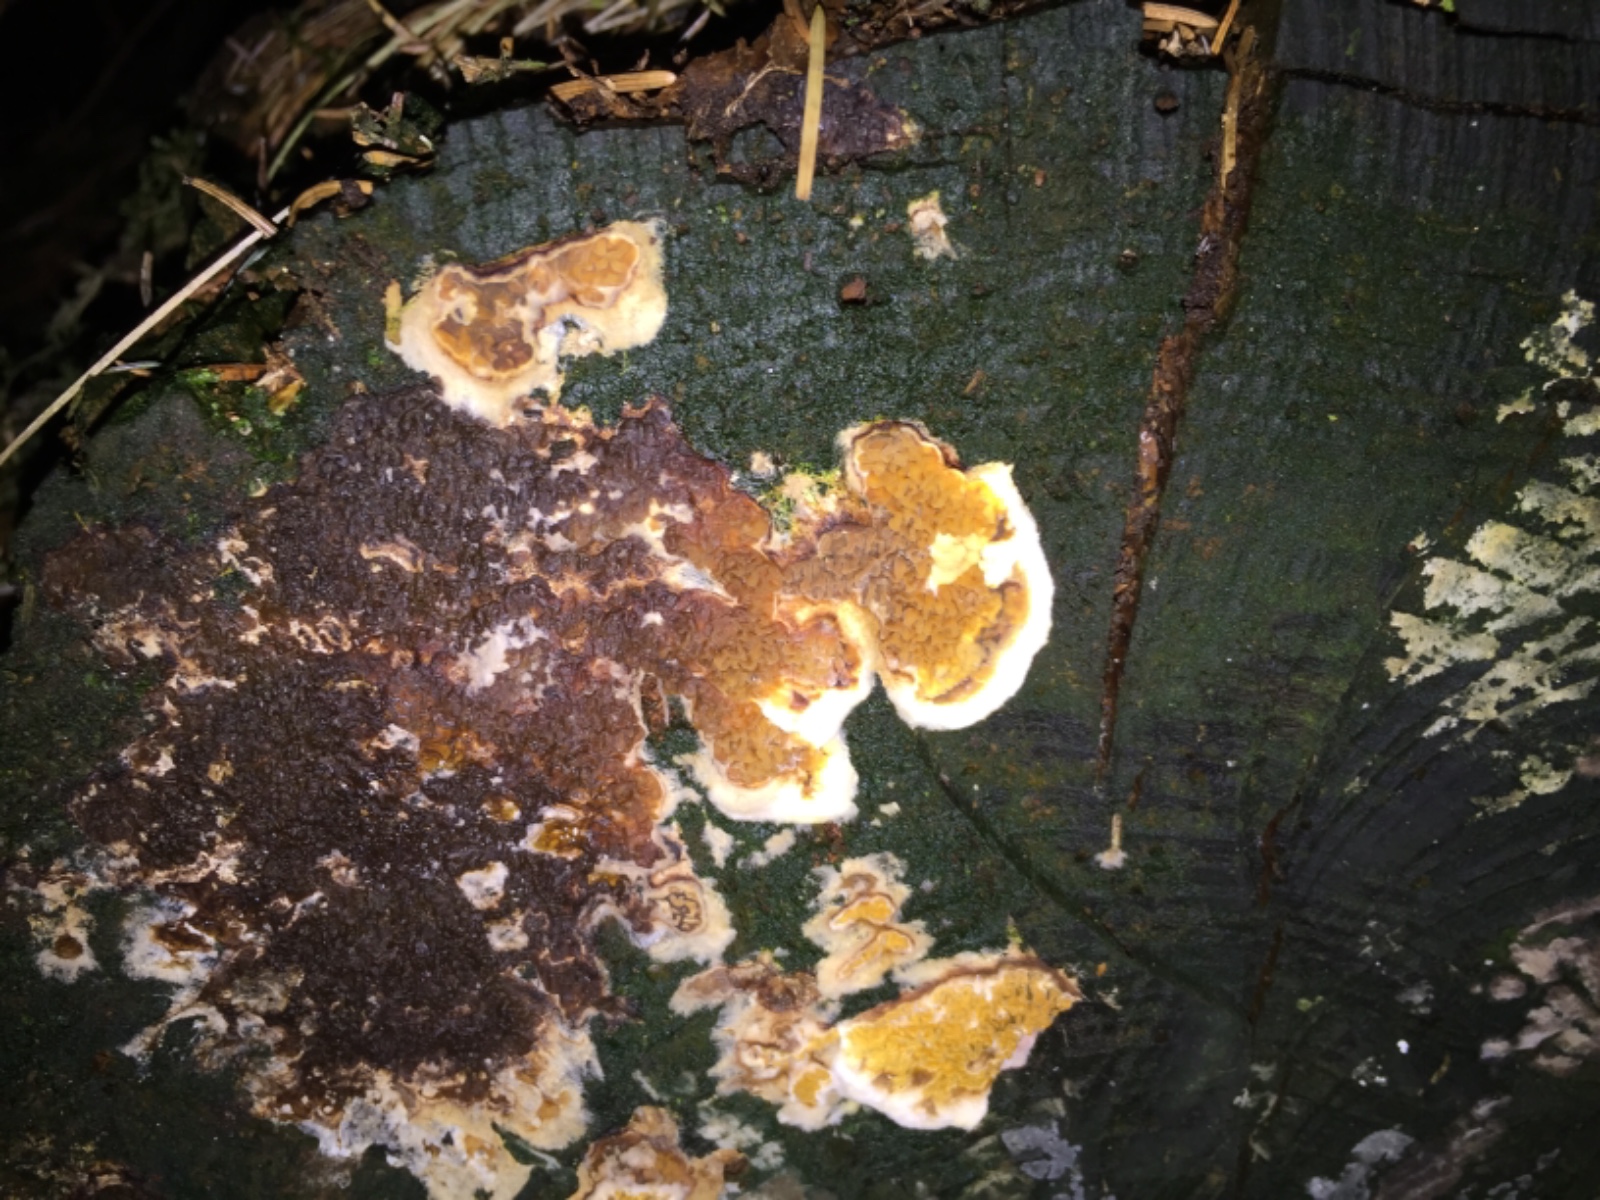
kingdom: Fungi
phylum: Basidiomycota
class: Agaricomycetes
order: Boletales
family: Serpulaceae
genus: Serpula
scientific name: Serpula himantioides
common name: tyndkødet hussvamp
